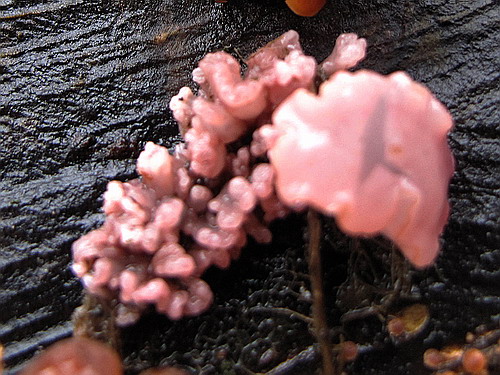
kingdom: Fungi
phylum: Ascomycota
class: Leotiomycetes
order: Helotiales
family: Gelatinodiscaceae
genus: Ascocoryne
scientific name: Ascocoryne sarcoides
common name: rødlilla sejskive
